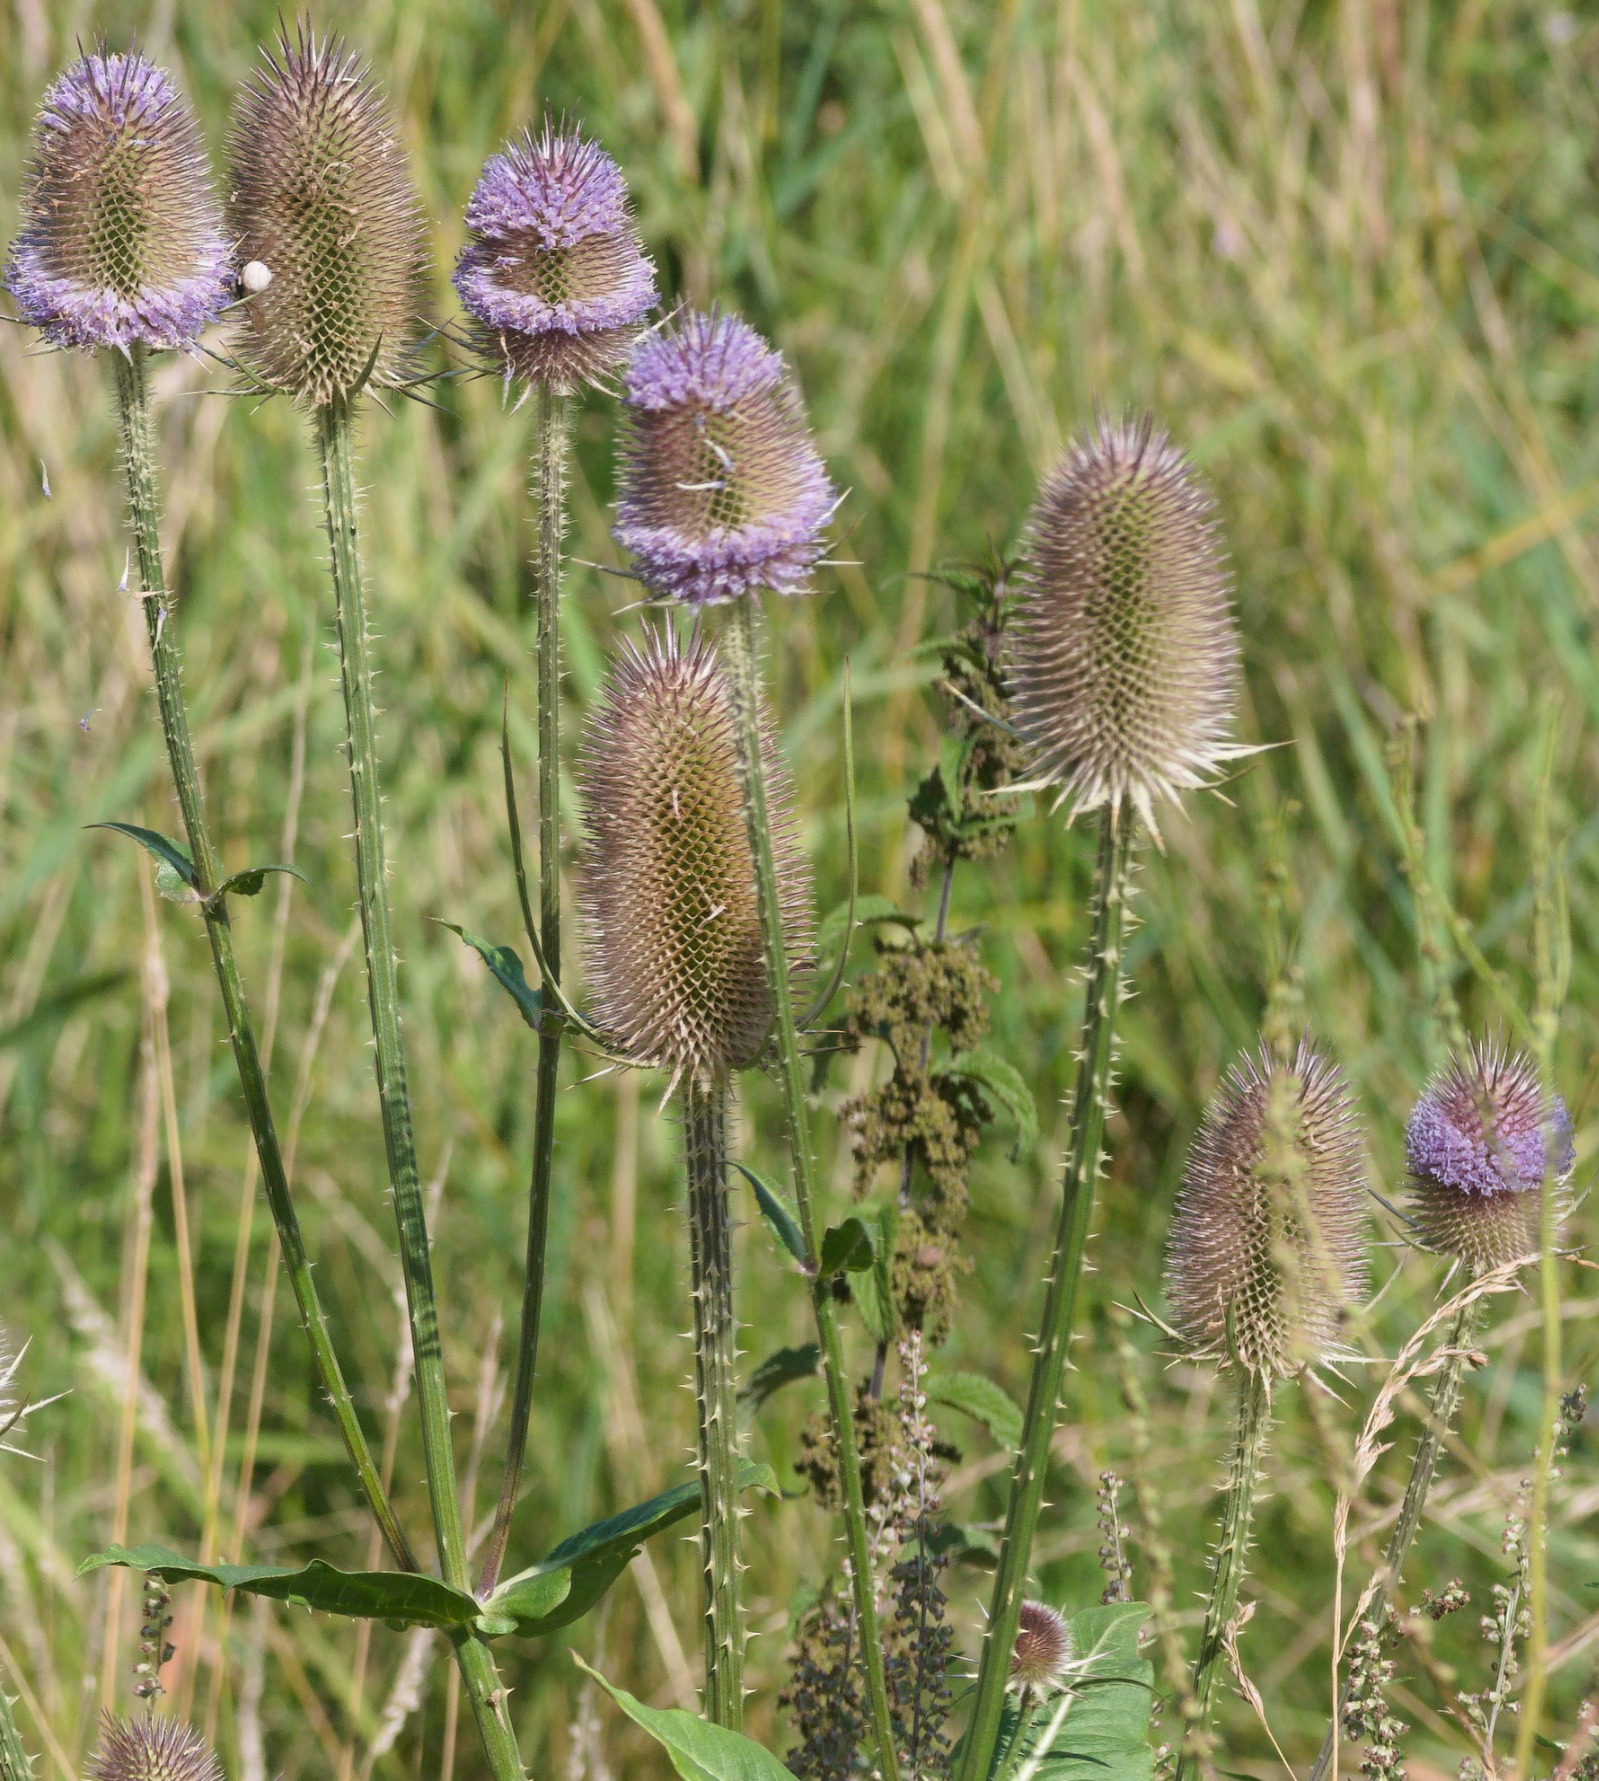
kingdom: Plantae
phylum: Tracheophyta
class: Magnoliopsida
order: Dipsacales
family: Caprifoliaceae
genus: Dipsacus
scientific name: Dipsacus fullonum
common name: Gærde-kartebolle
